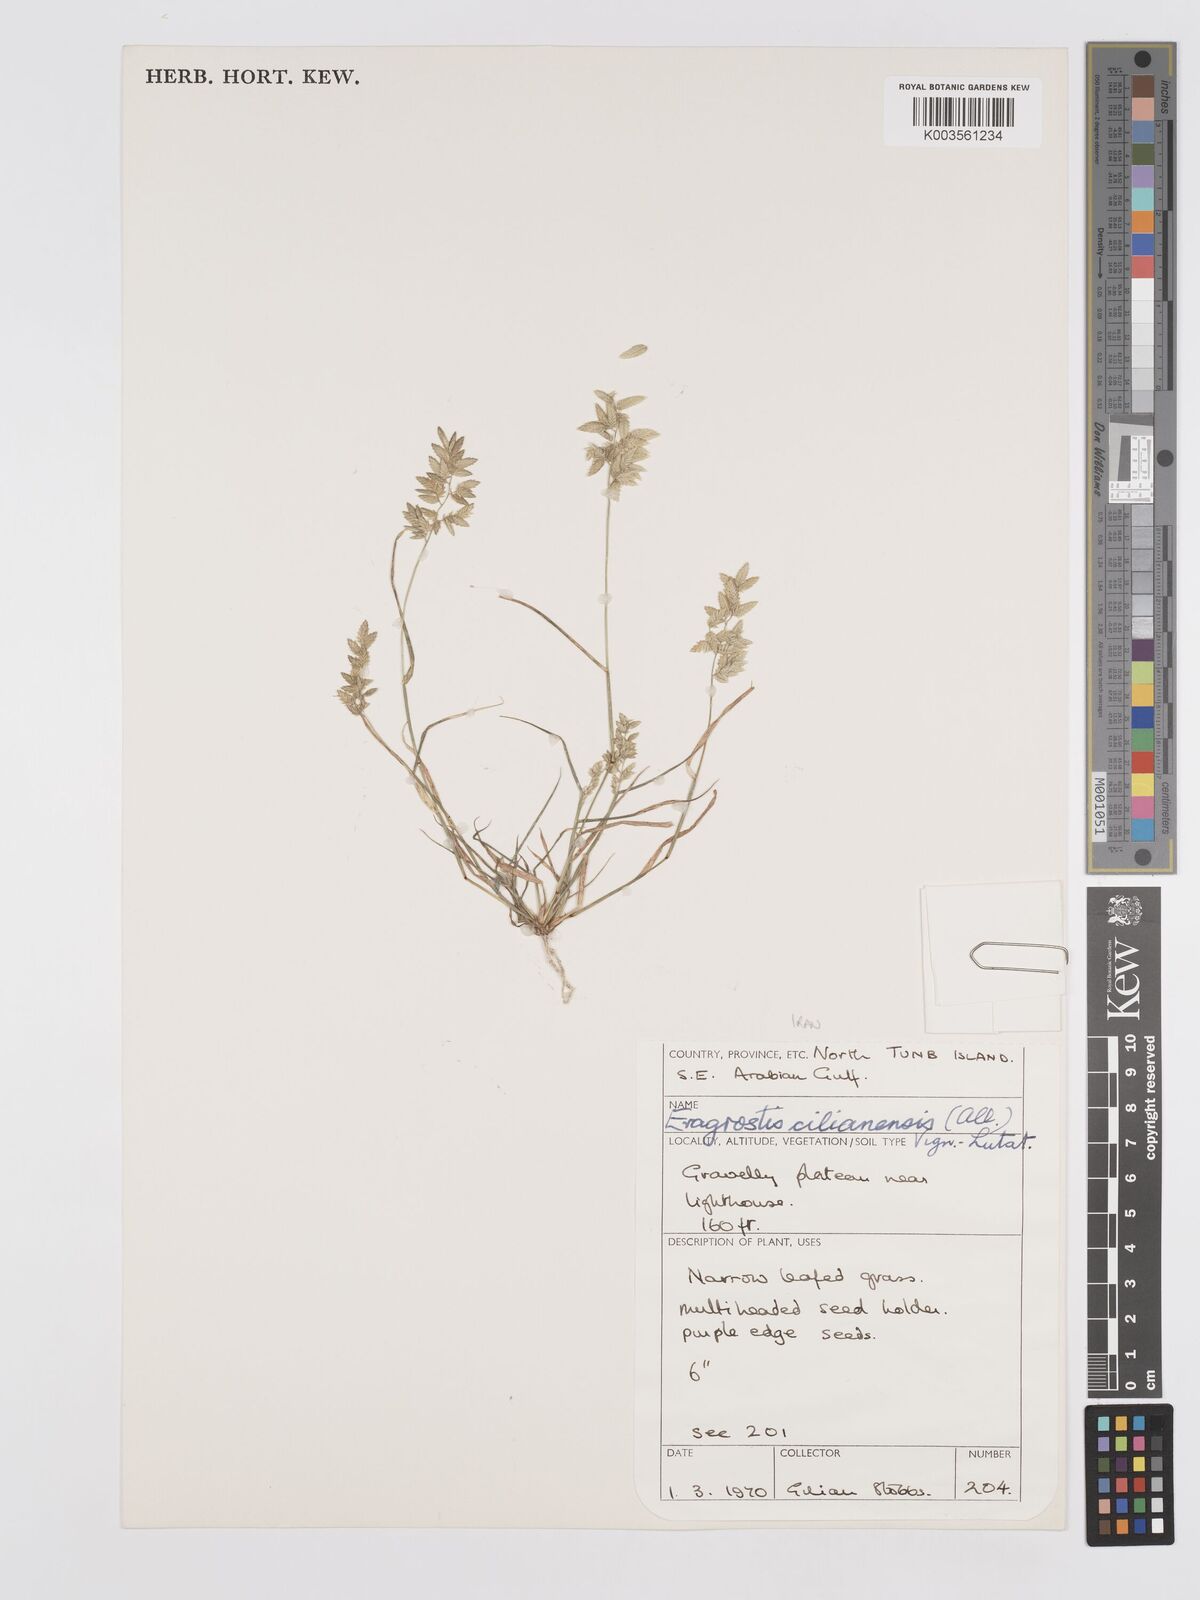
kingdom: Plantae
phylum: Tracheophyta
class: Liliopsida
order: Poales
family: Poaceae
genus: Eragrostis
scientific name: Eragrostis cilianensis
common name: Stinkgrass
